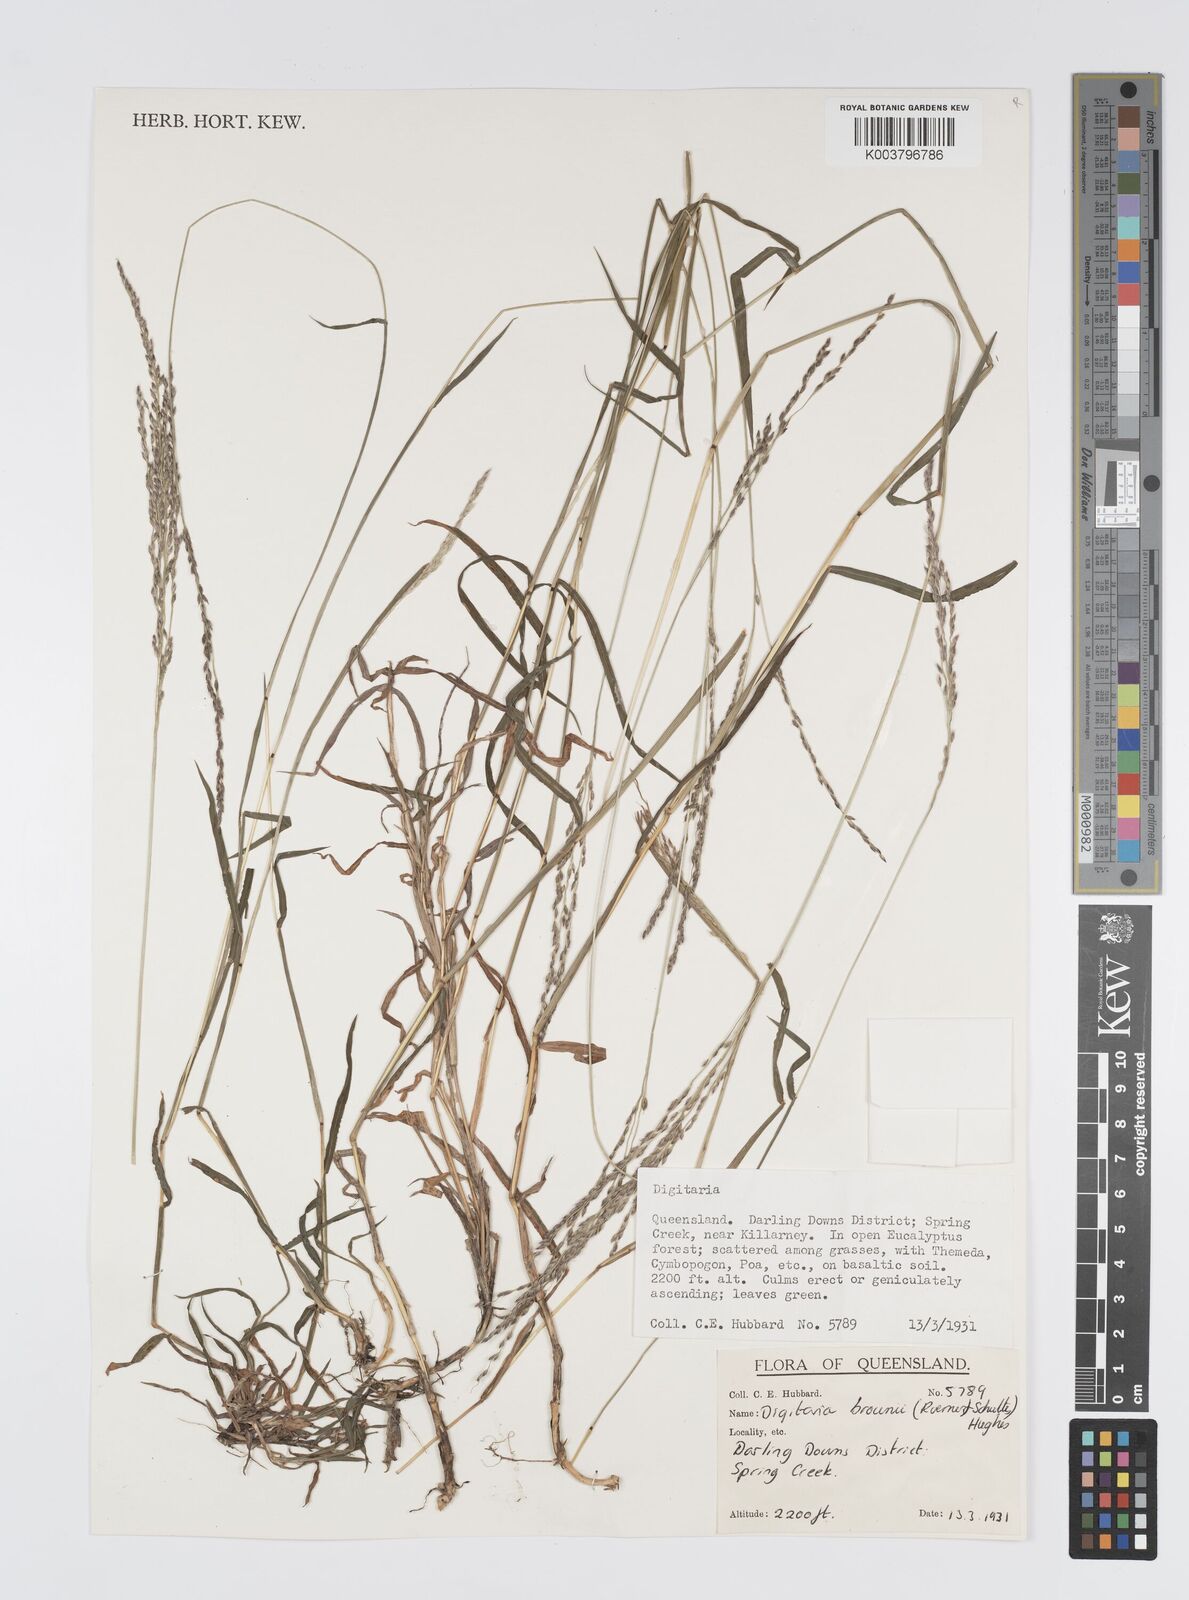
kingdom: Plantae
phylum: Tracheophyta
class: Liliopsida
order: Poales
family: Poaceae
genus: Digitaria
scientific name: Digitaria brownii
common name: Cotton grass
